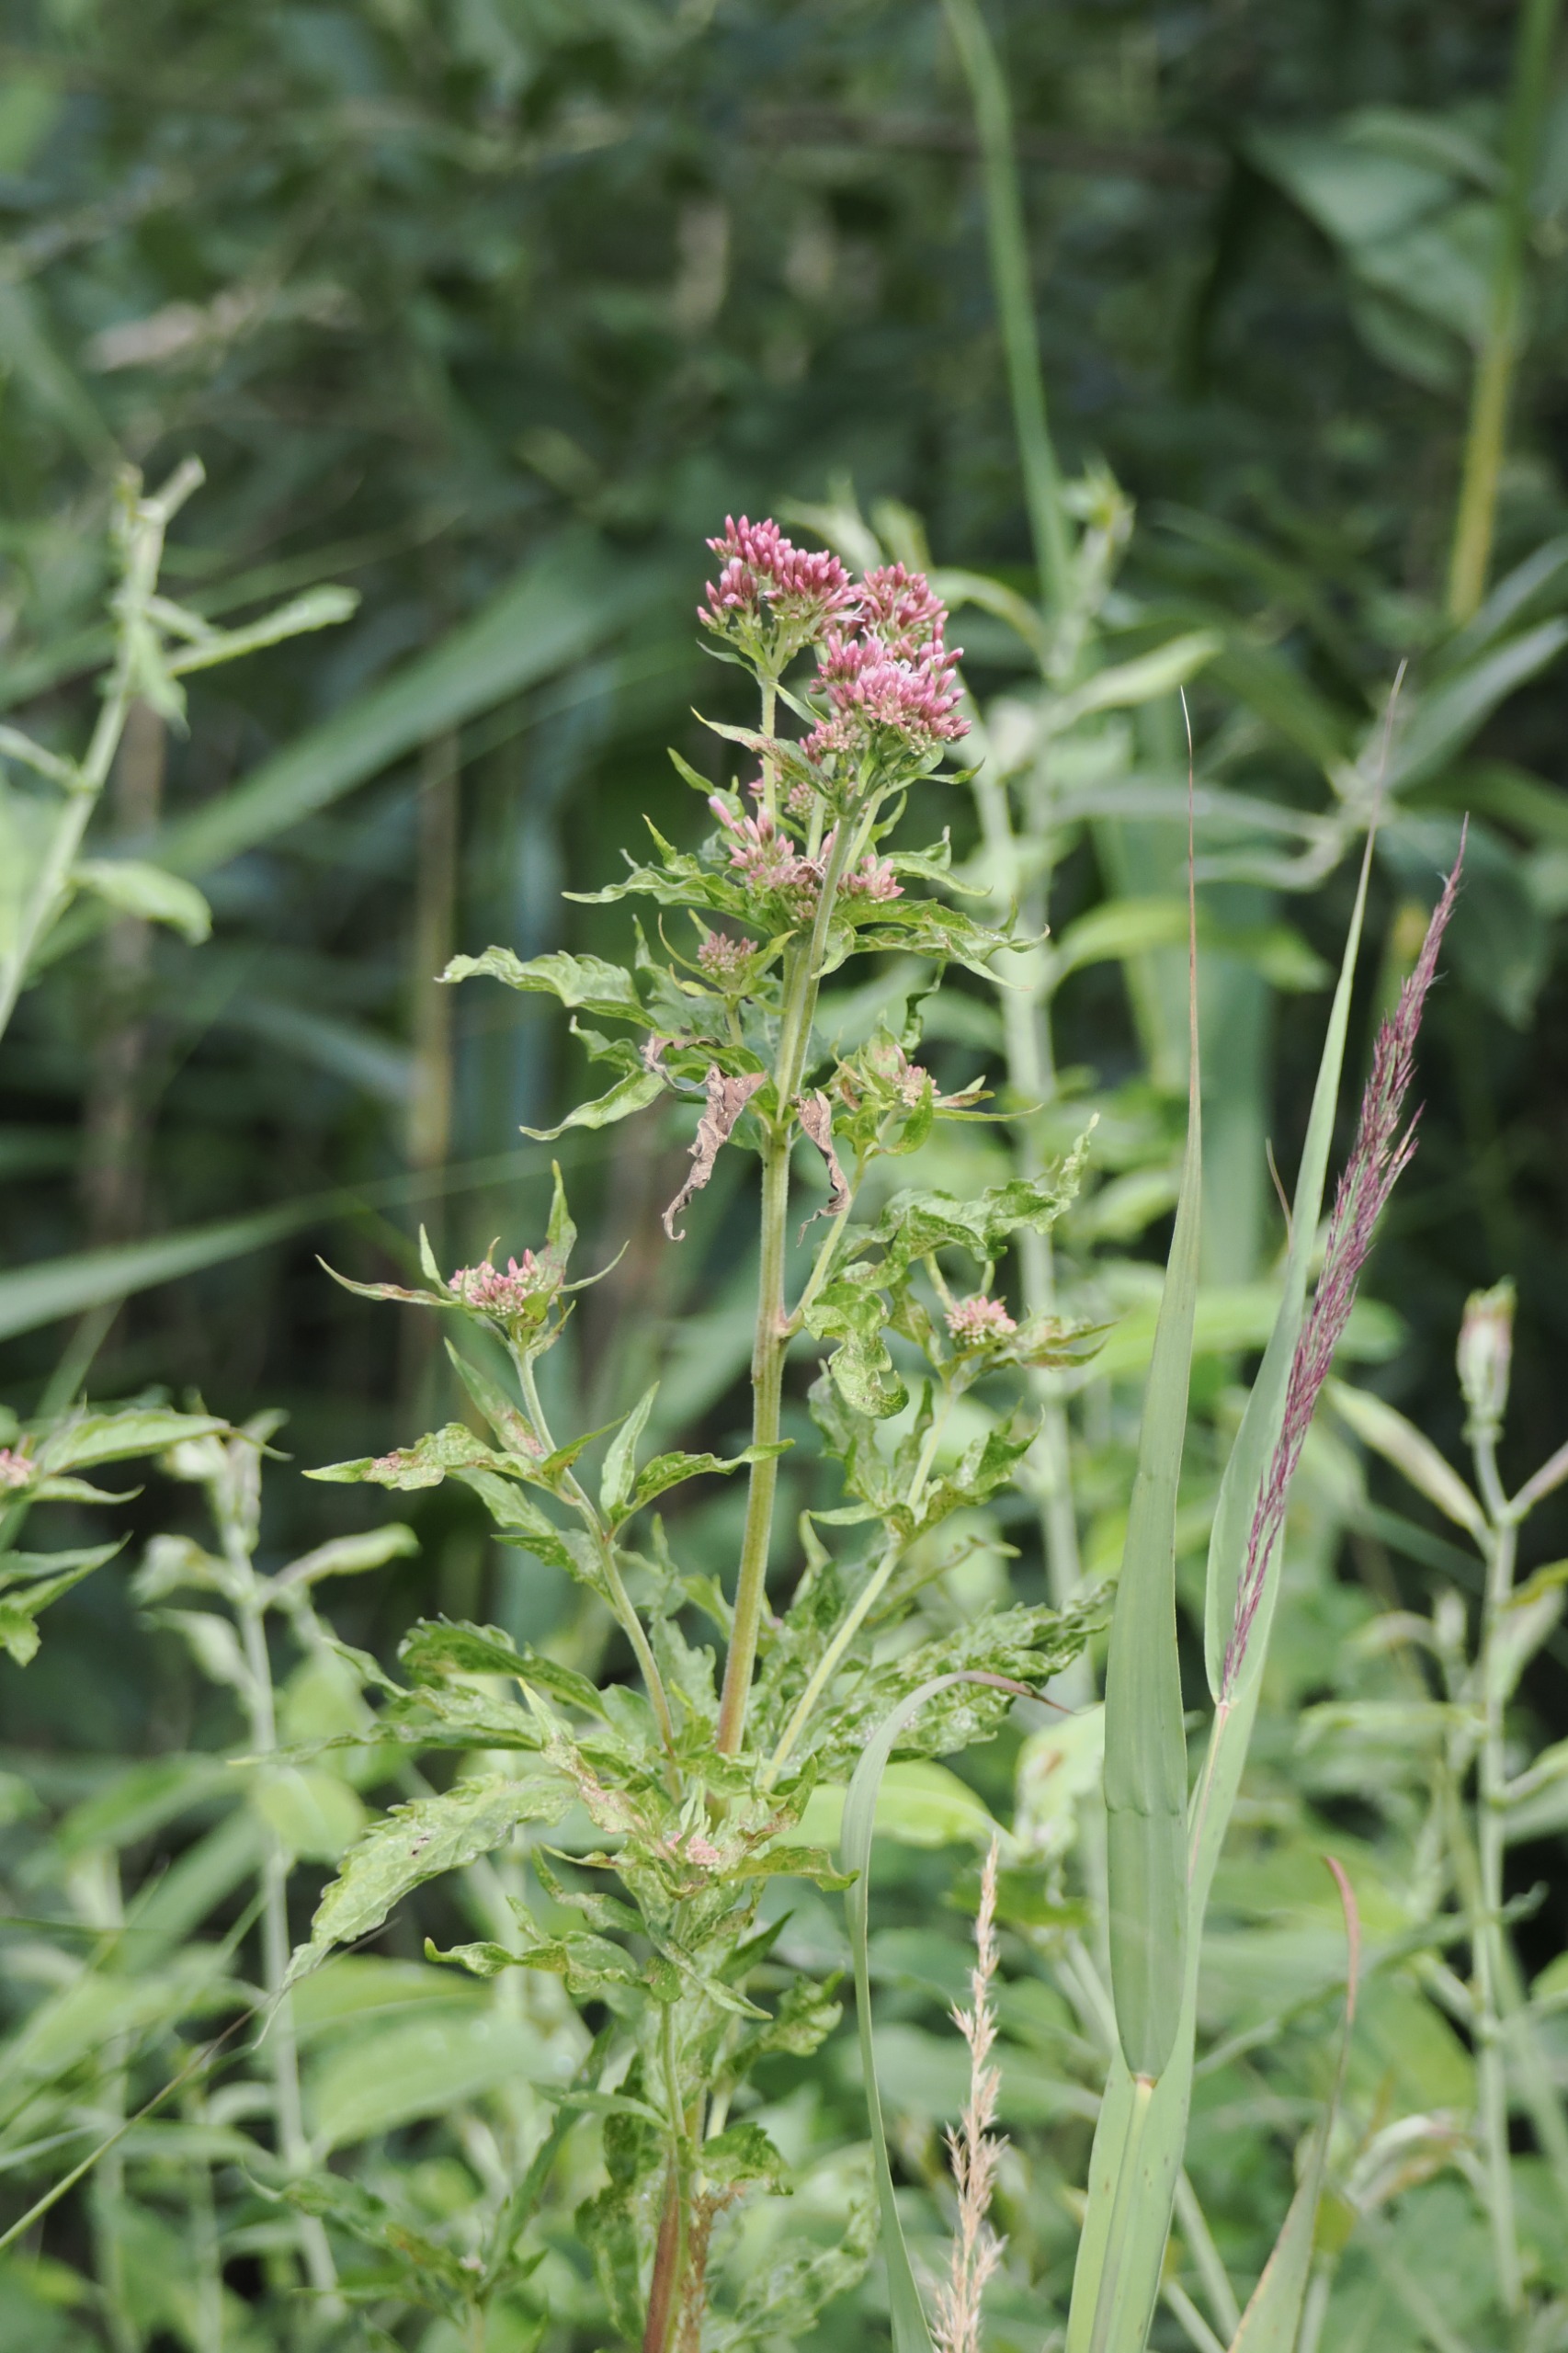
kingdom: Plantae
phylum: Tracheophyta
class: Magnoliopsida
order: Asterales
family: Asteraceae
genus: Eupatorium
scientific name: Eupatorium cannabinum
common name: Hjortetrøst
